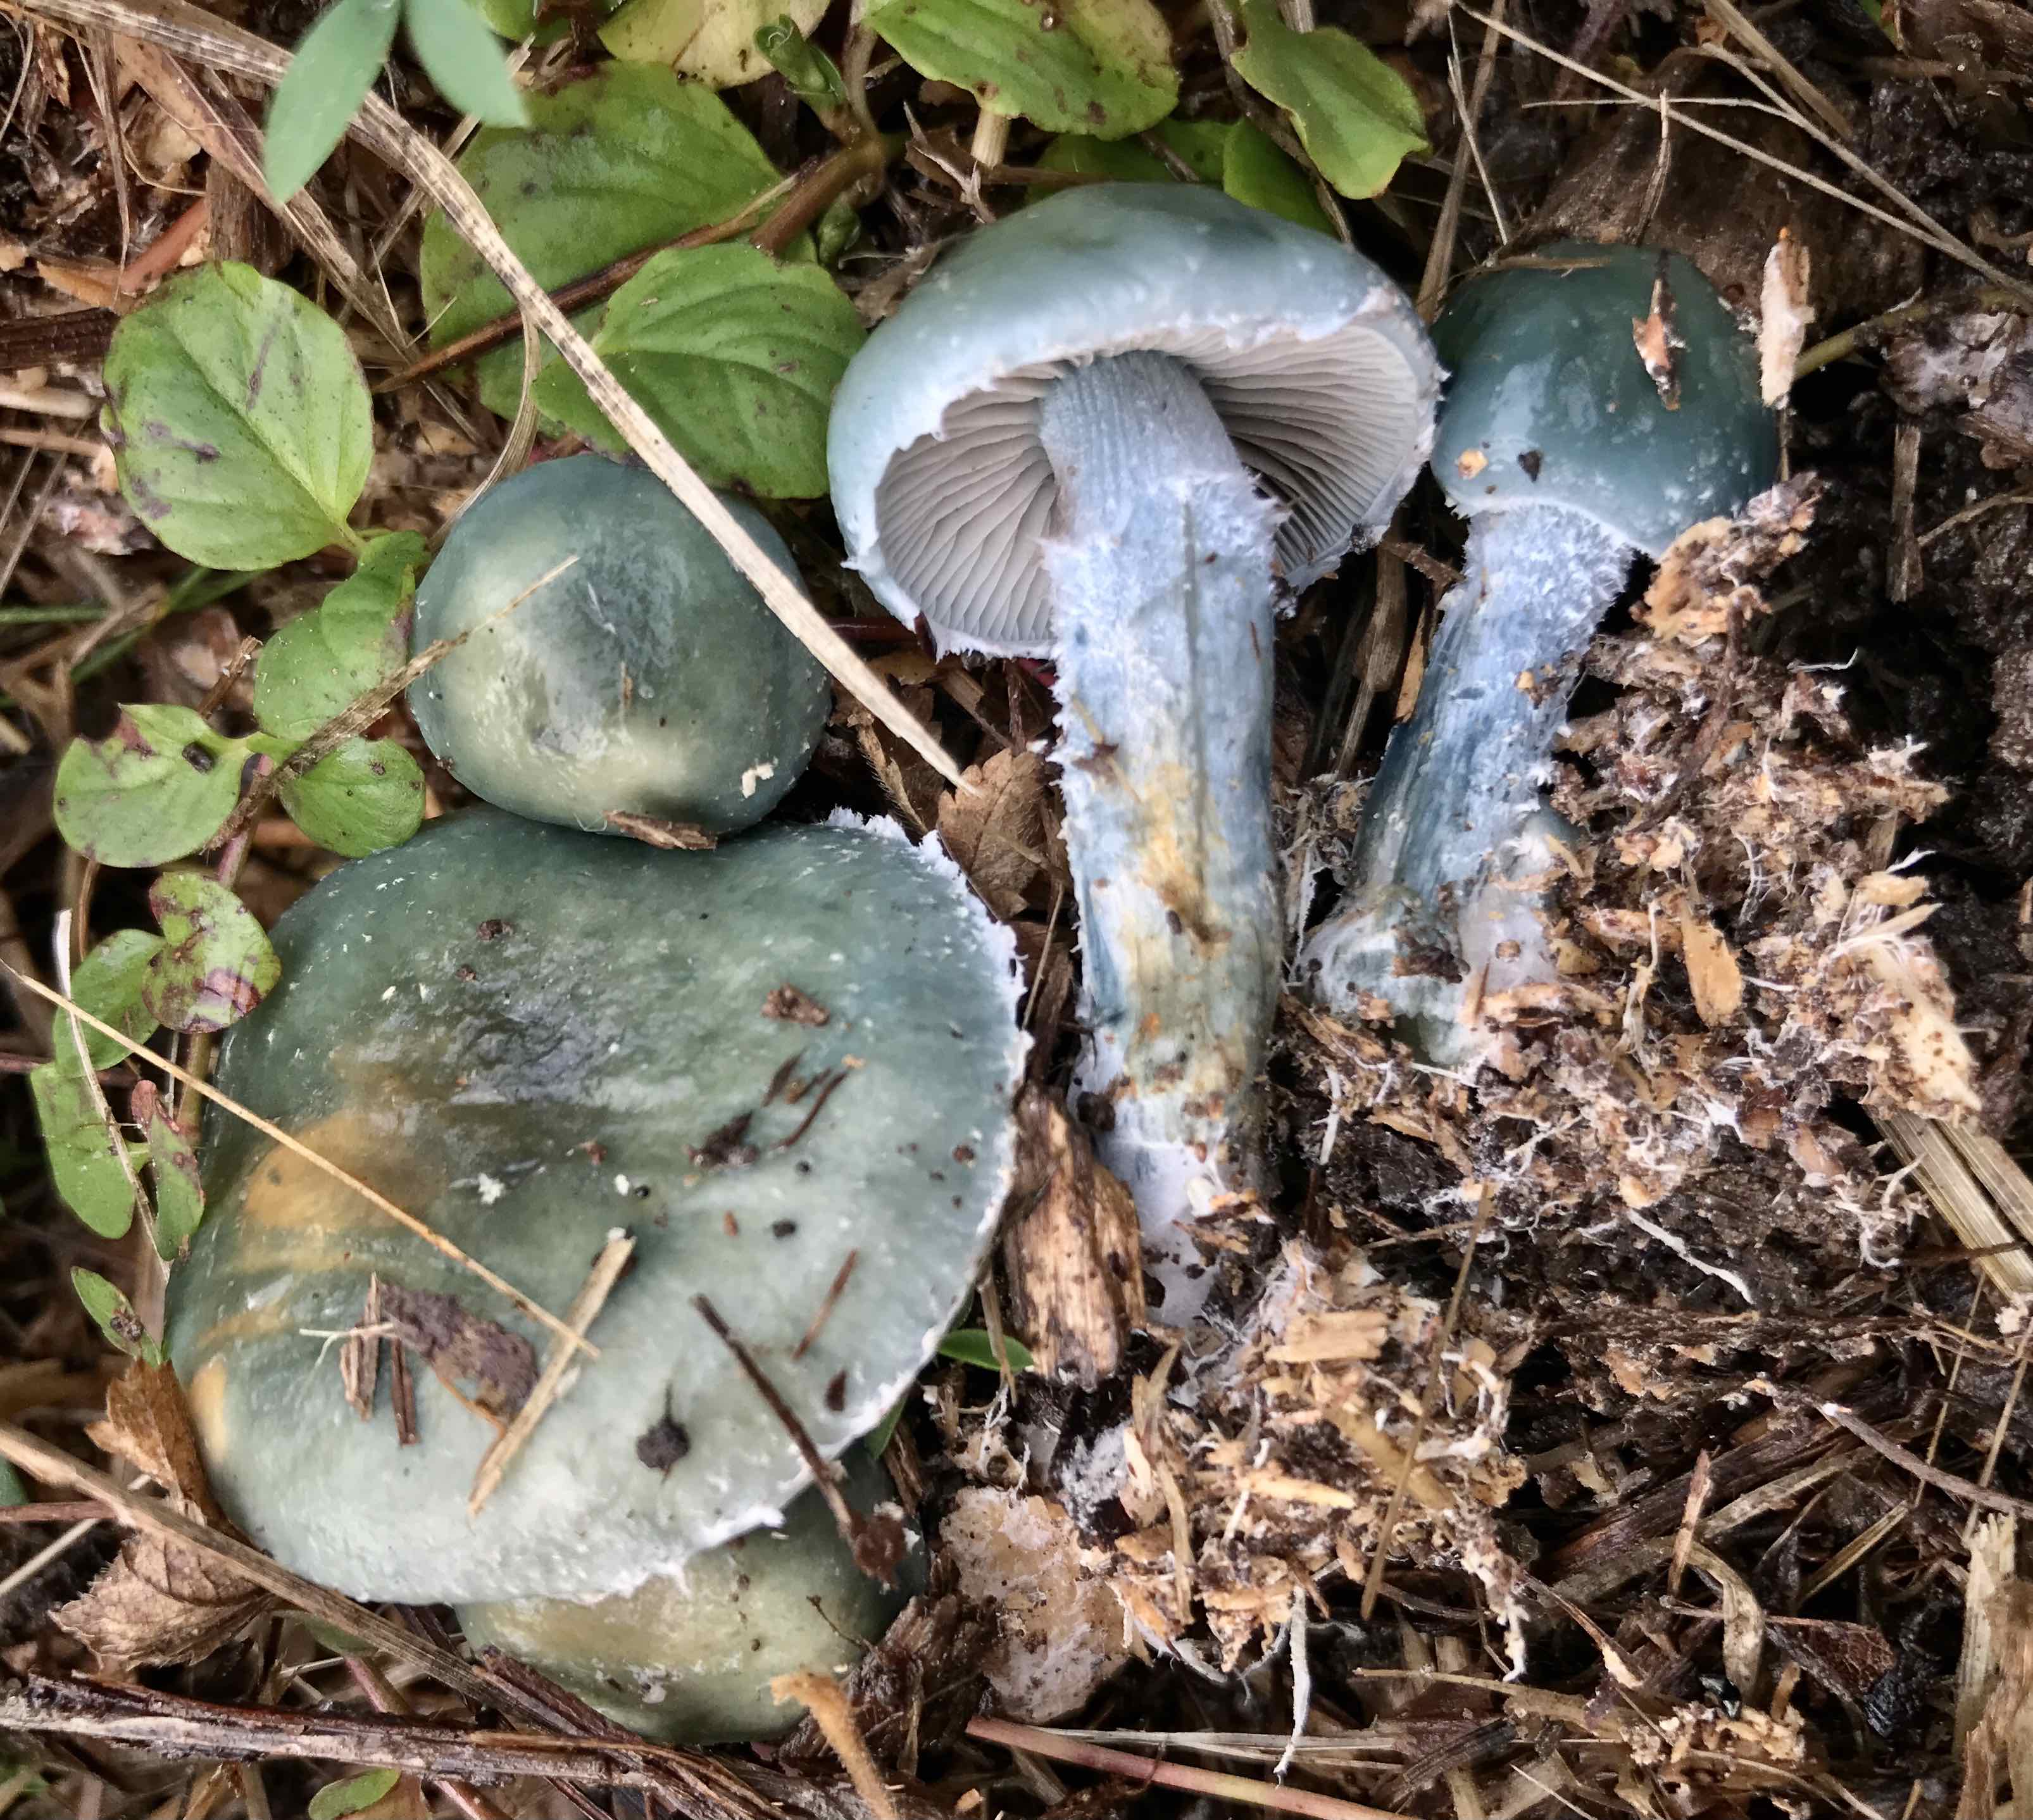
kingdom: Fungi
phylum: Basidiomycota
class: Agaricomycetes
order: Agaricales
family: Strophariaceae
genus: Stropharia
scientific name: Stropharia cyanea
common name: blågrøn bredblad
